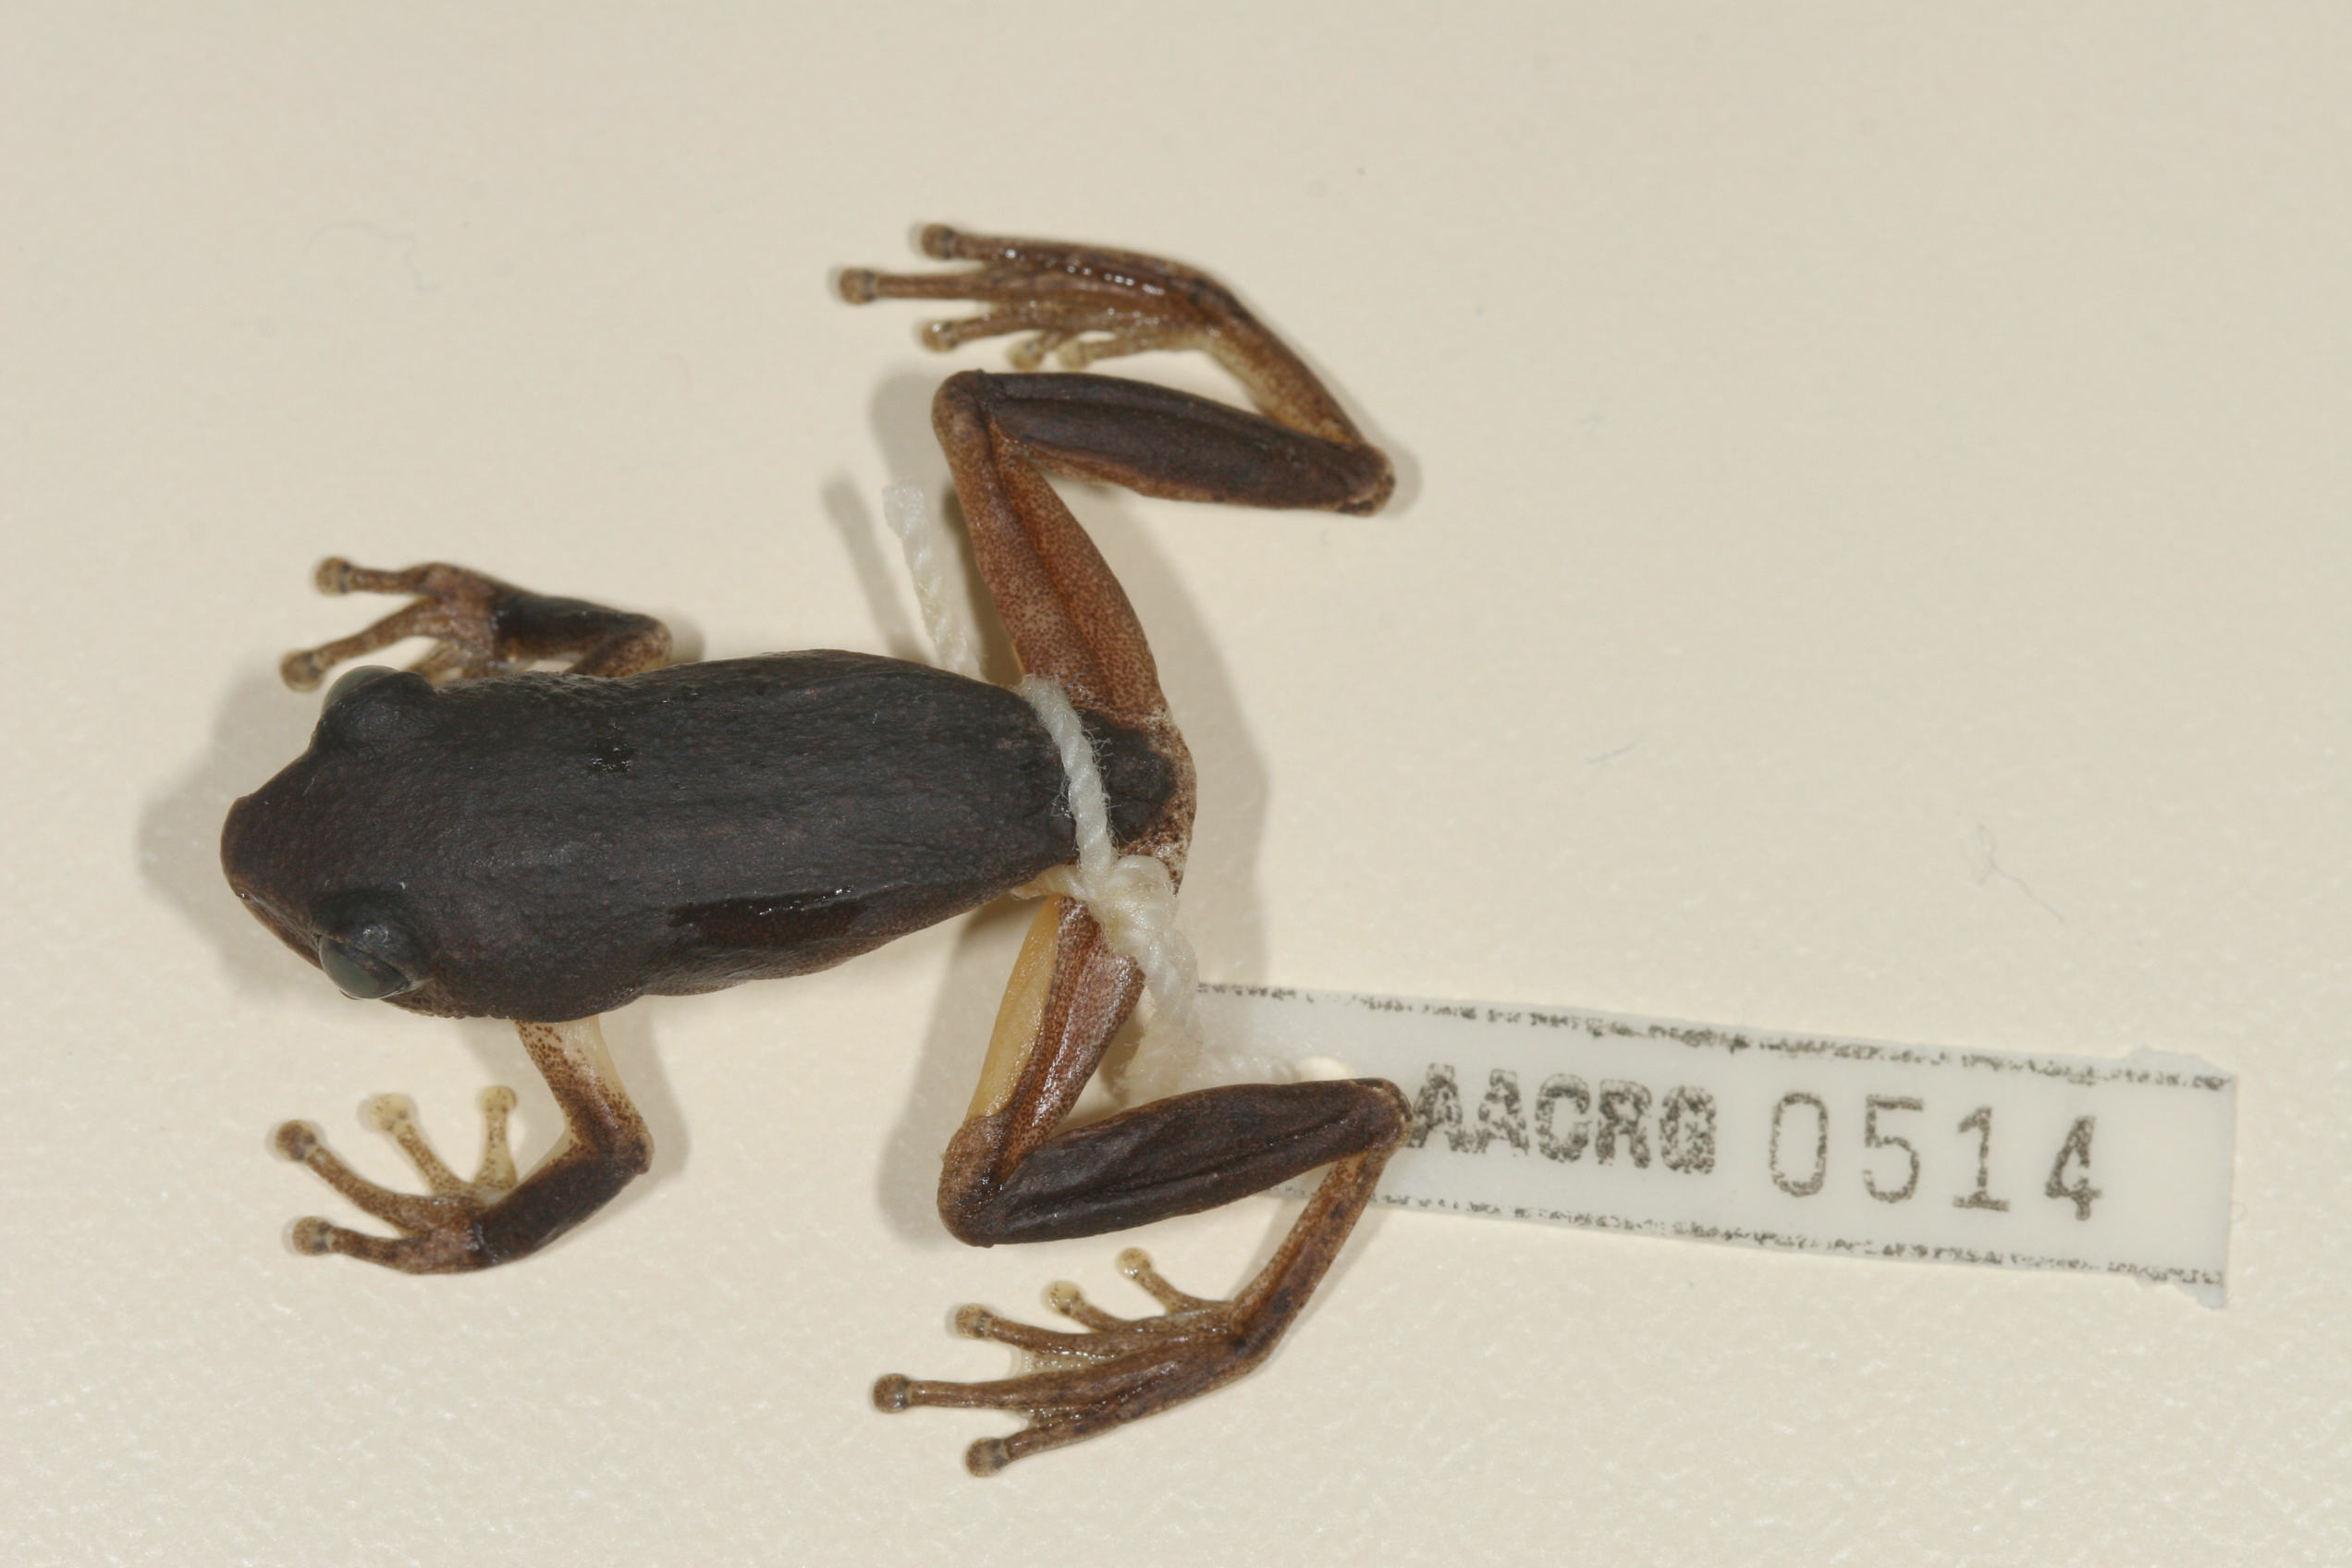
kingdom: Animalia
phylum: Chordata
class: Amphibia
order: Anura
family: Hyperoliidae
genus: Hyperolius
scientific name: Hyperolius tuberilinguis
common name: Tinker reed frog
